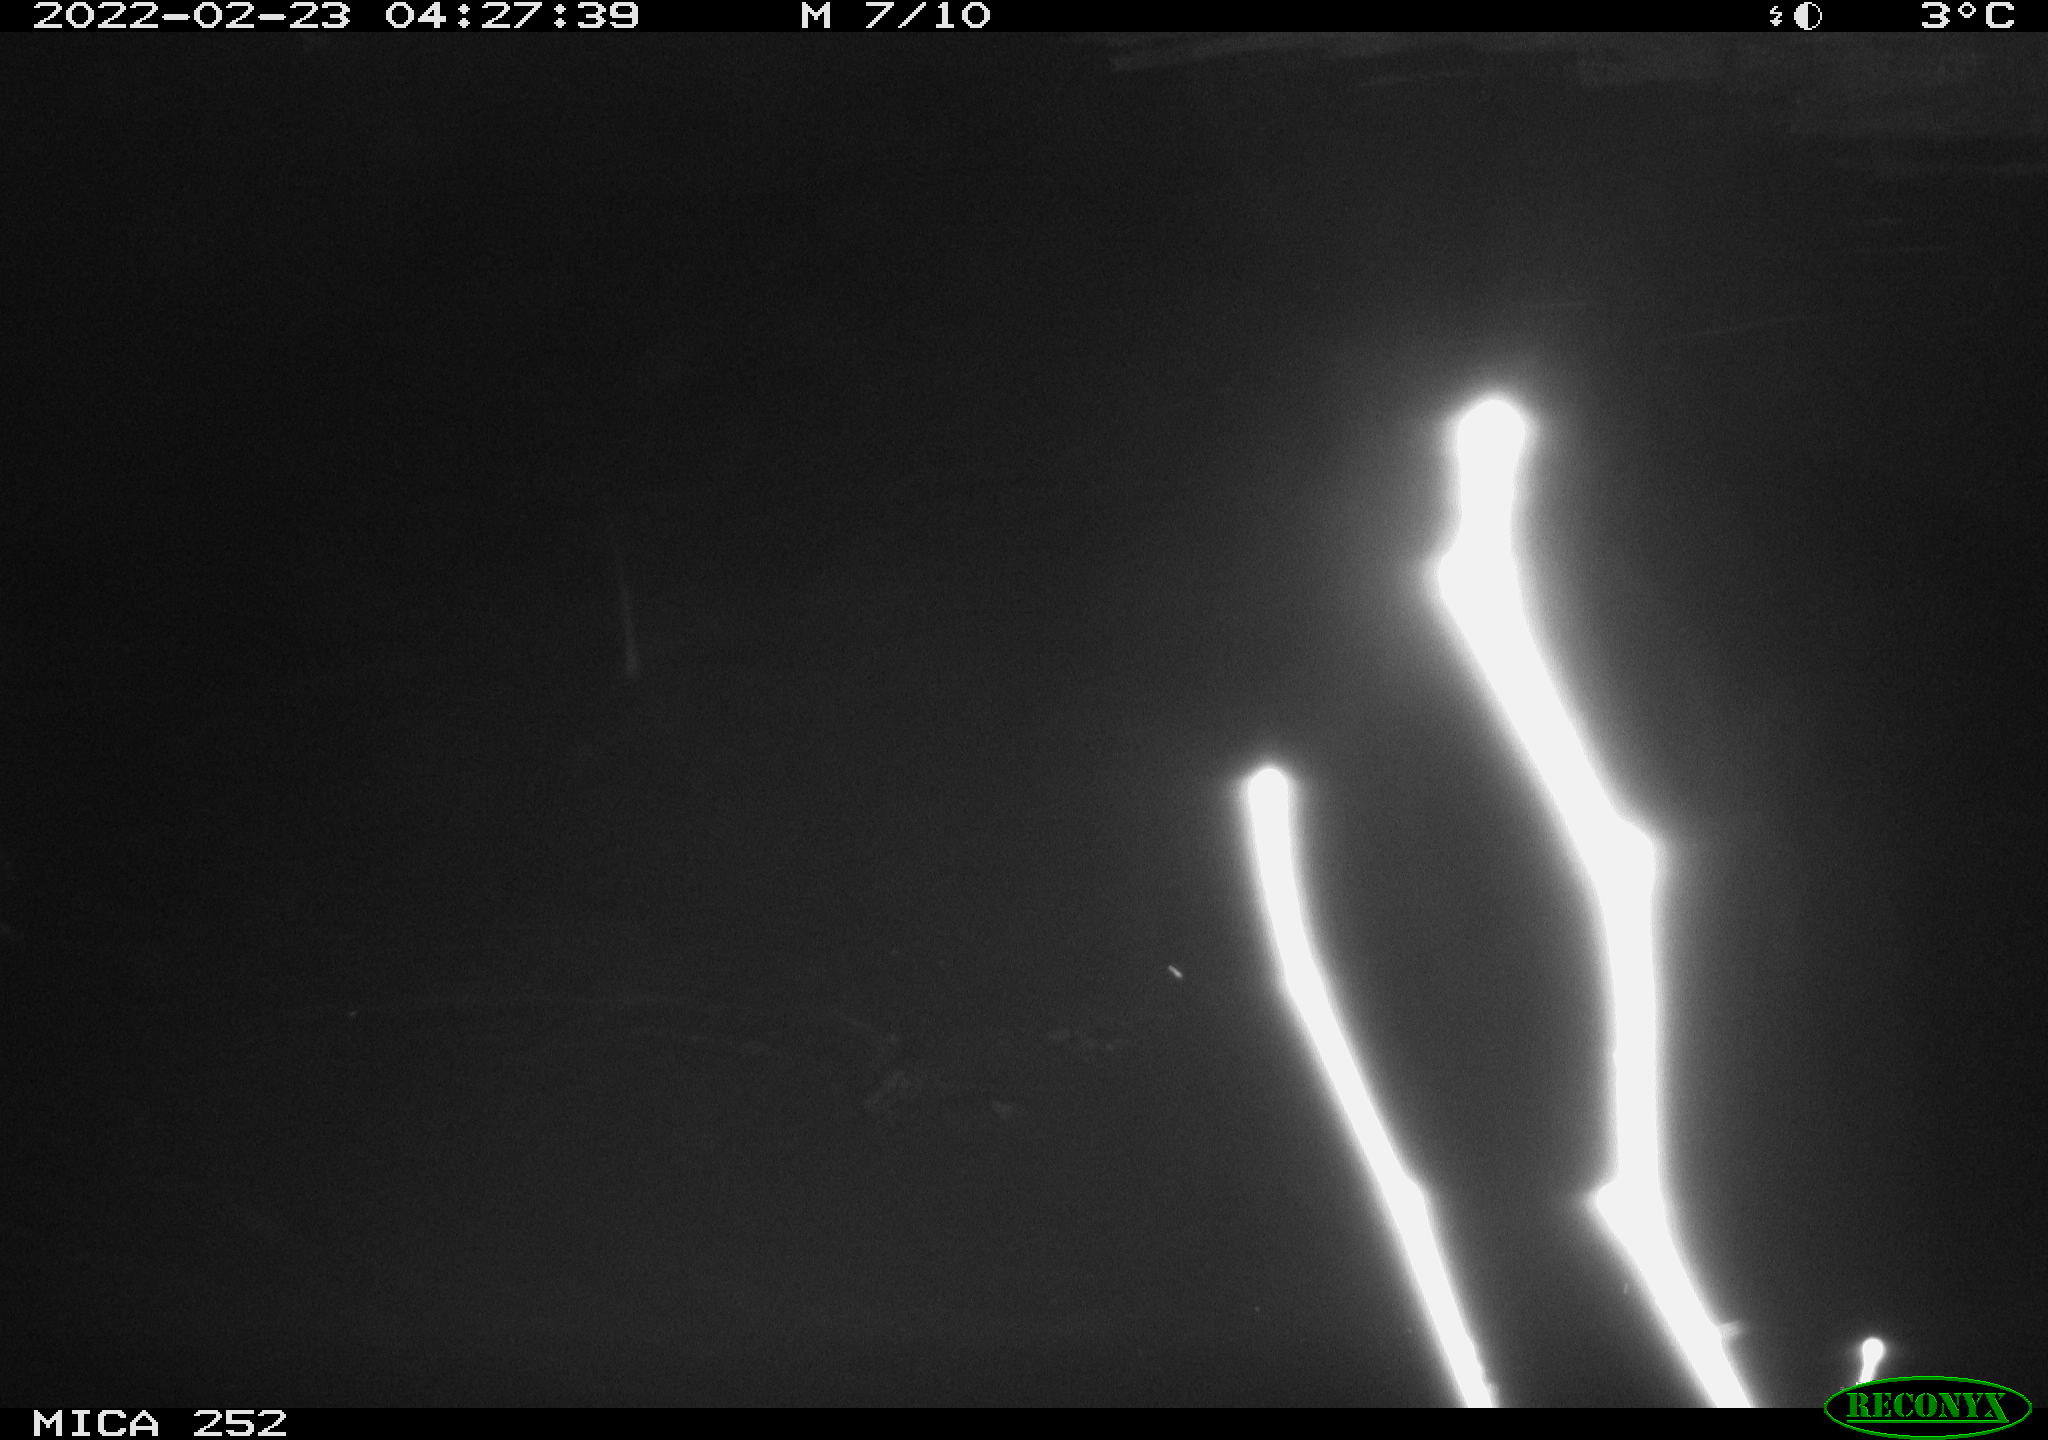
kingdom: Animalia
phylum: Chordata
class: Mammalia
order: Rodentia
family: Castoridae
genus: Castor
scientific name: Castor fiber
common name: Eurasian beaver
